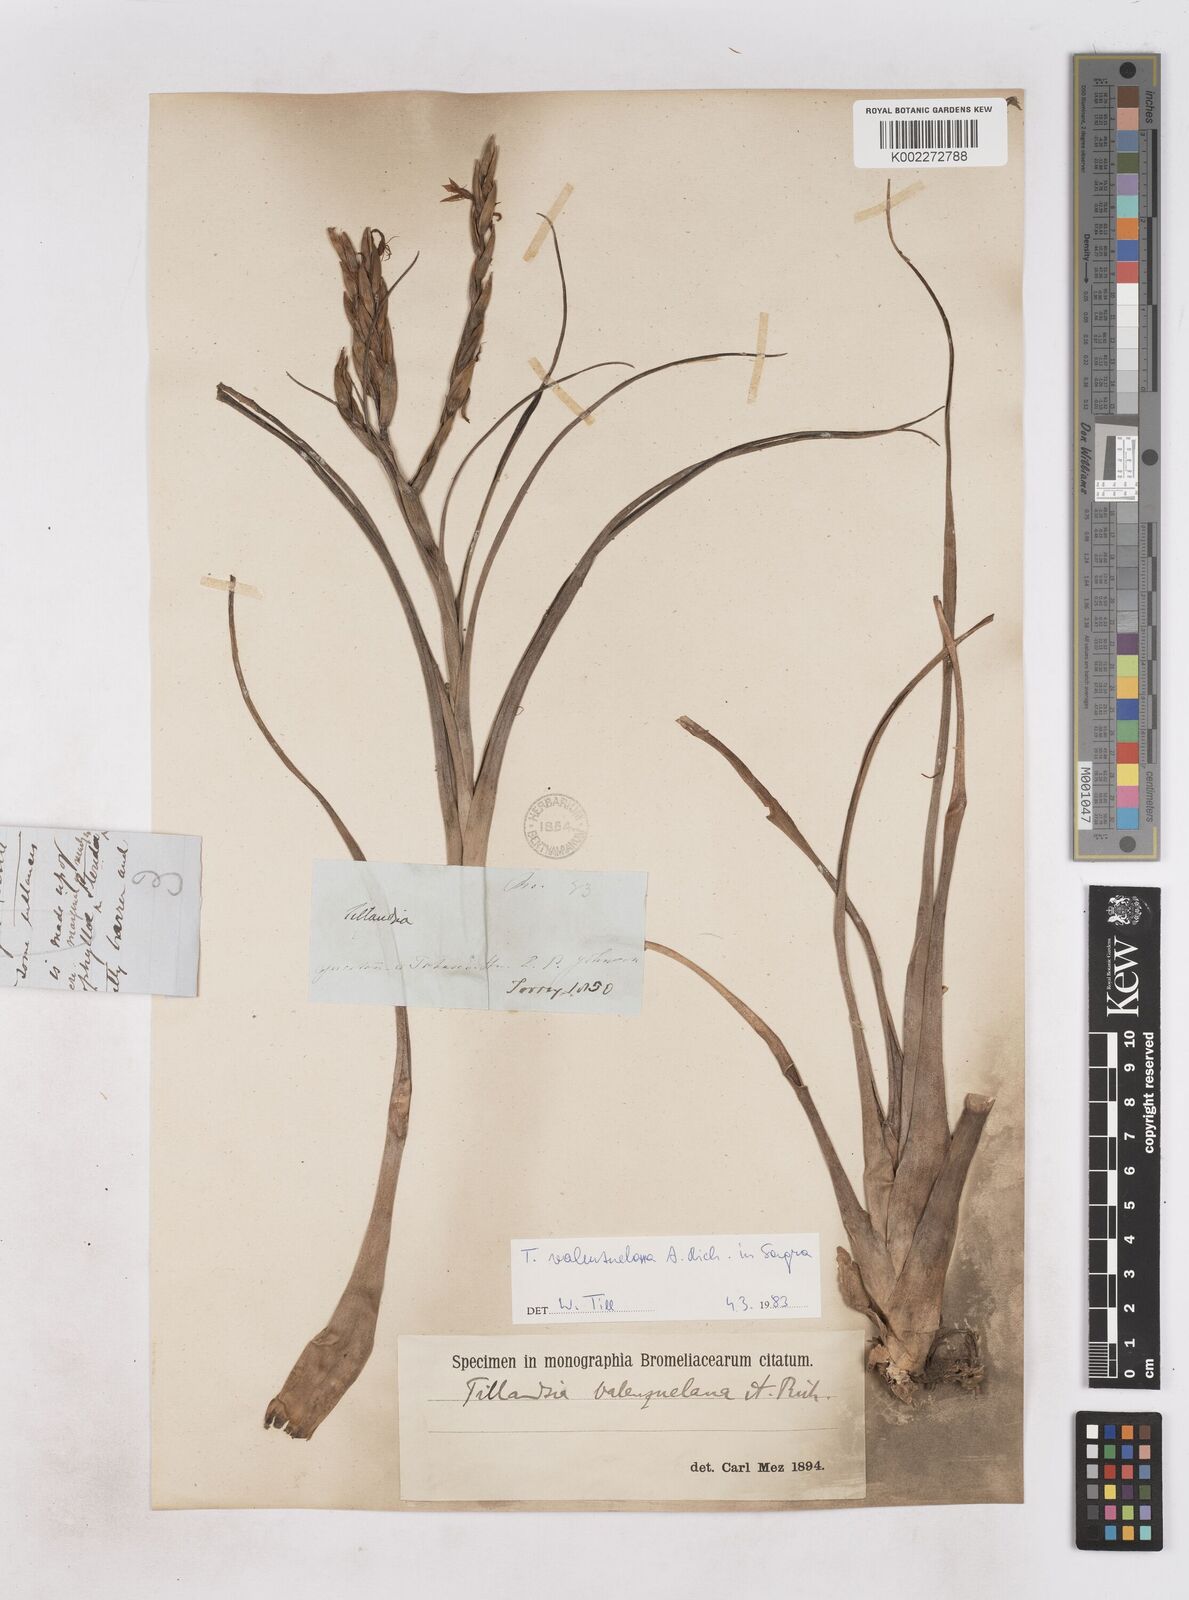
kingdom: Plantae
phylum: Tracheophyta
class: Liliopsida
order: Poales
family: Bromeliaceae
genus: Tillandsia
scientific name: Tillandsia variabilis
